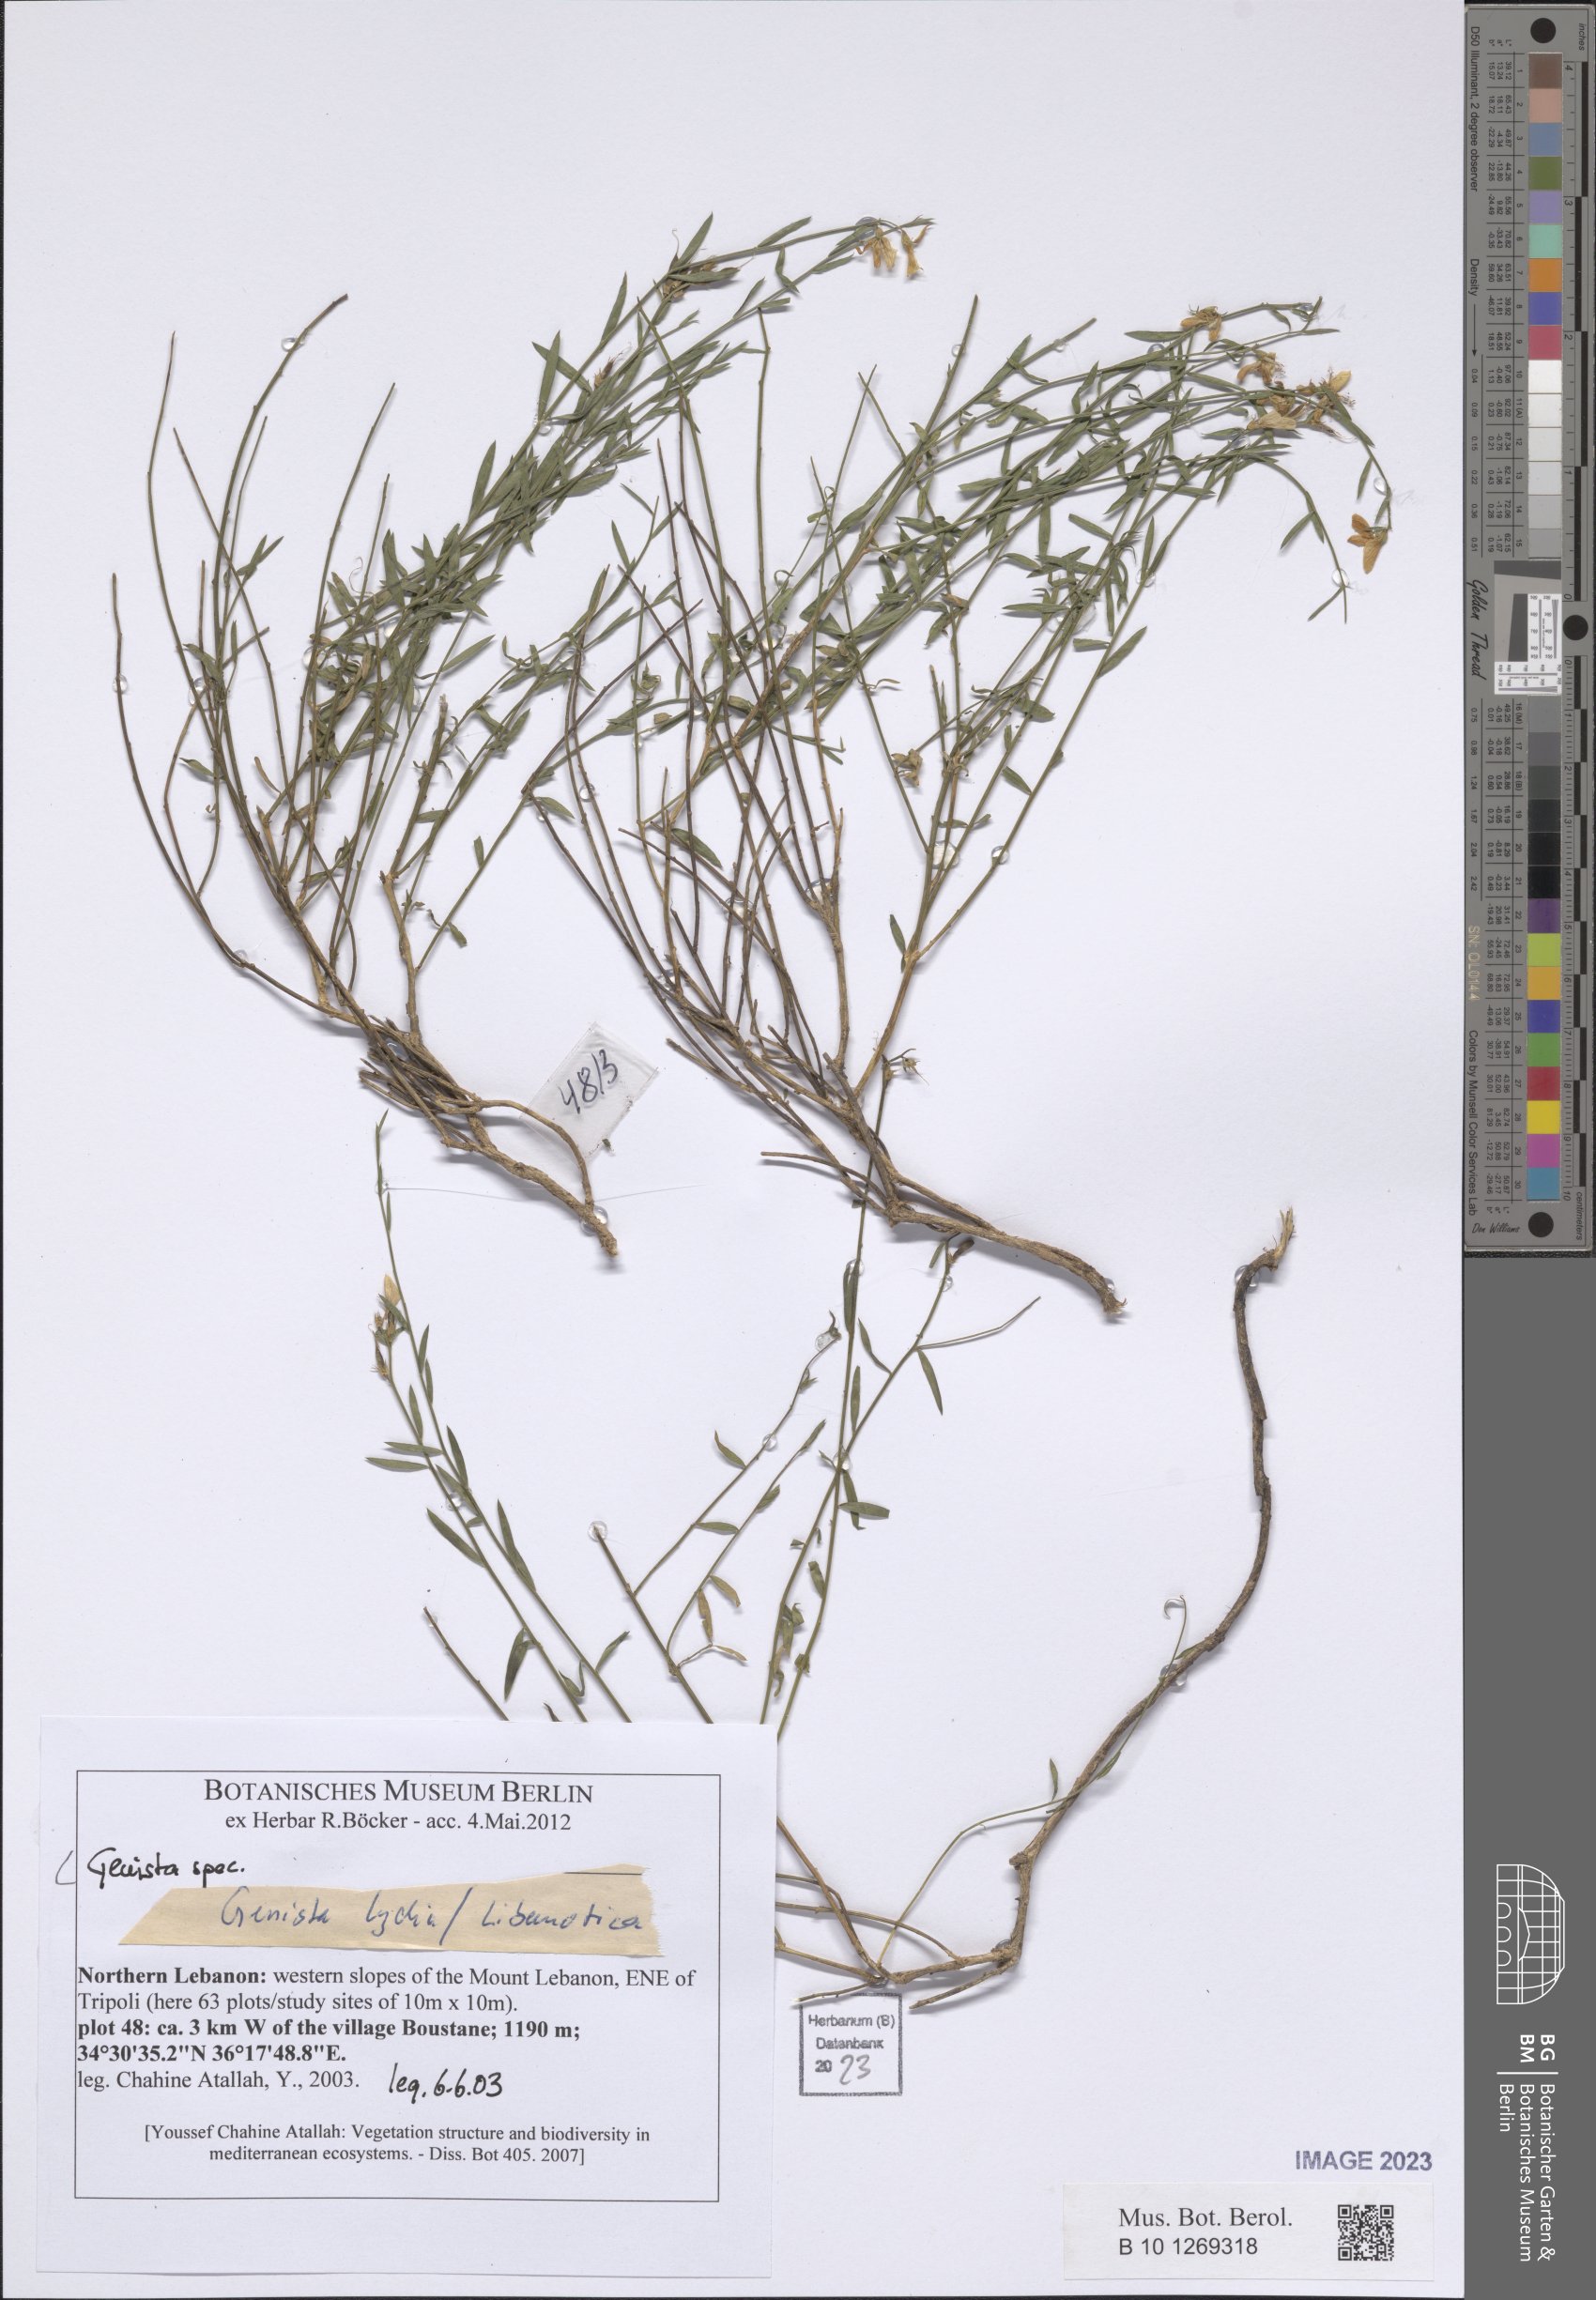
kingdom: Plantae
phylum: Tracheophyta
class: Magnoliopsida
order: Fabales
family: Fabaceae
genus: Genista
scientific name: Genista
